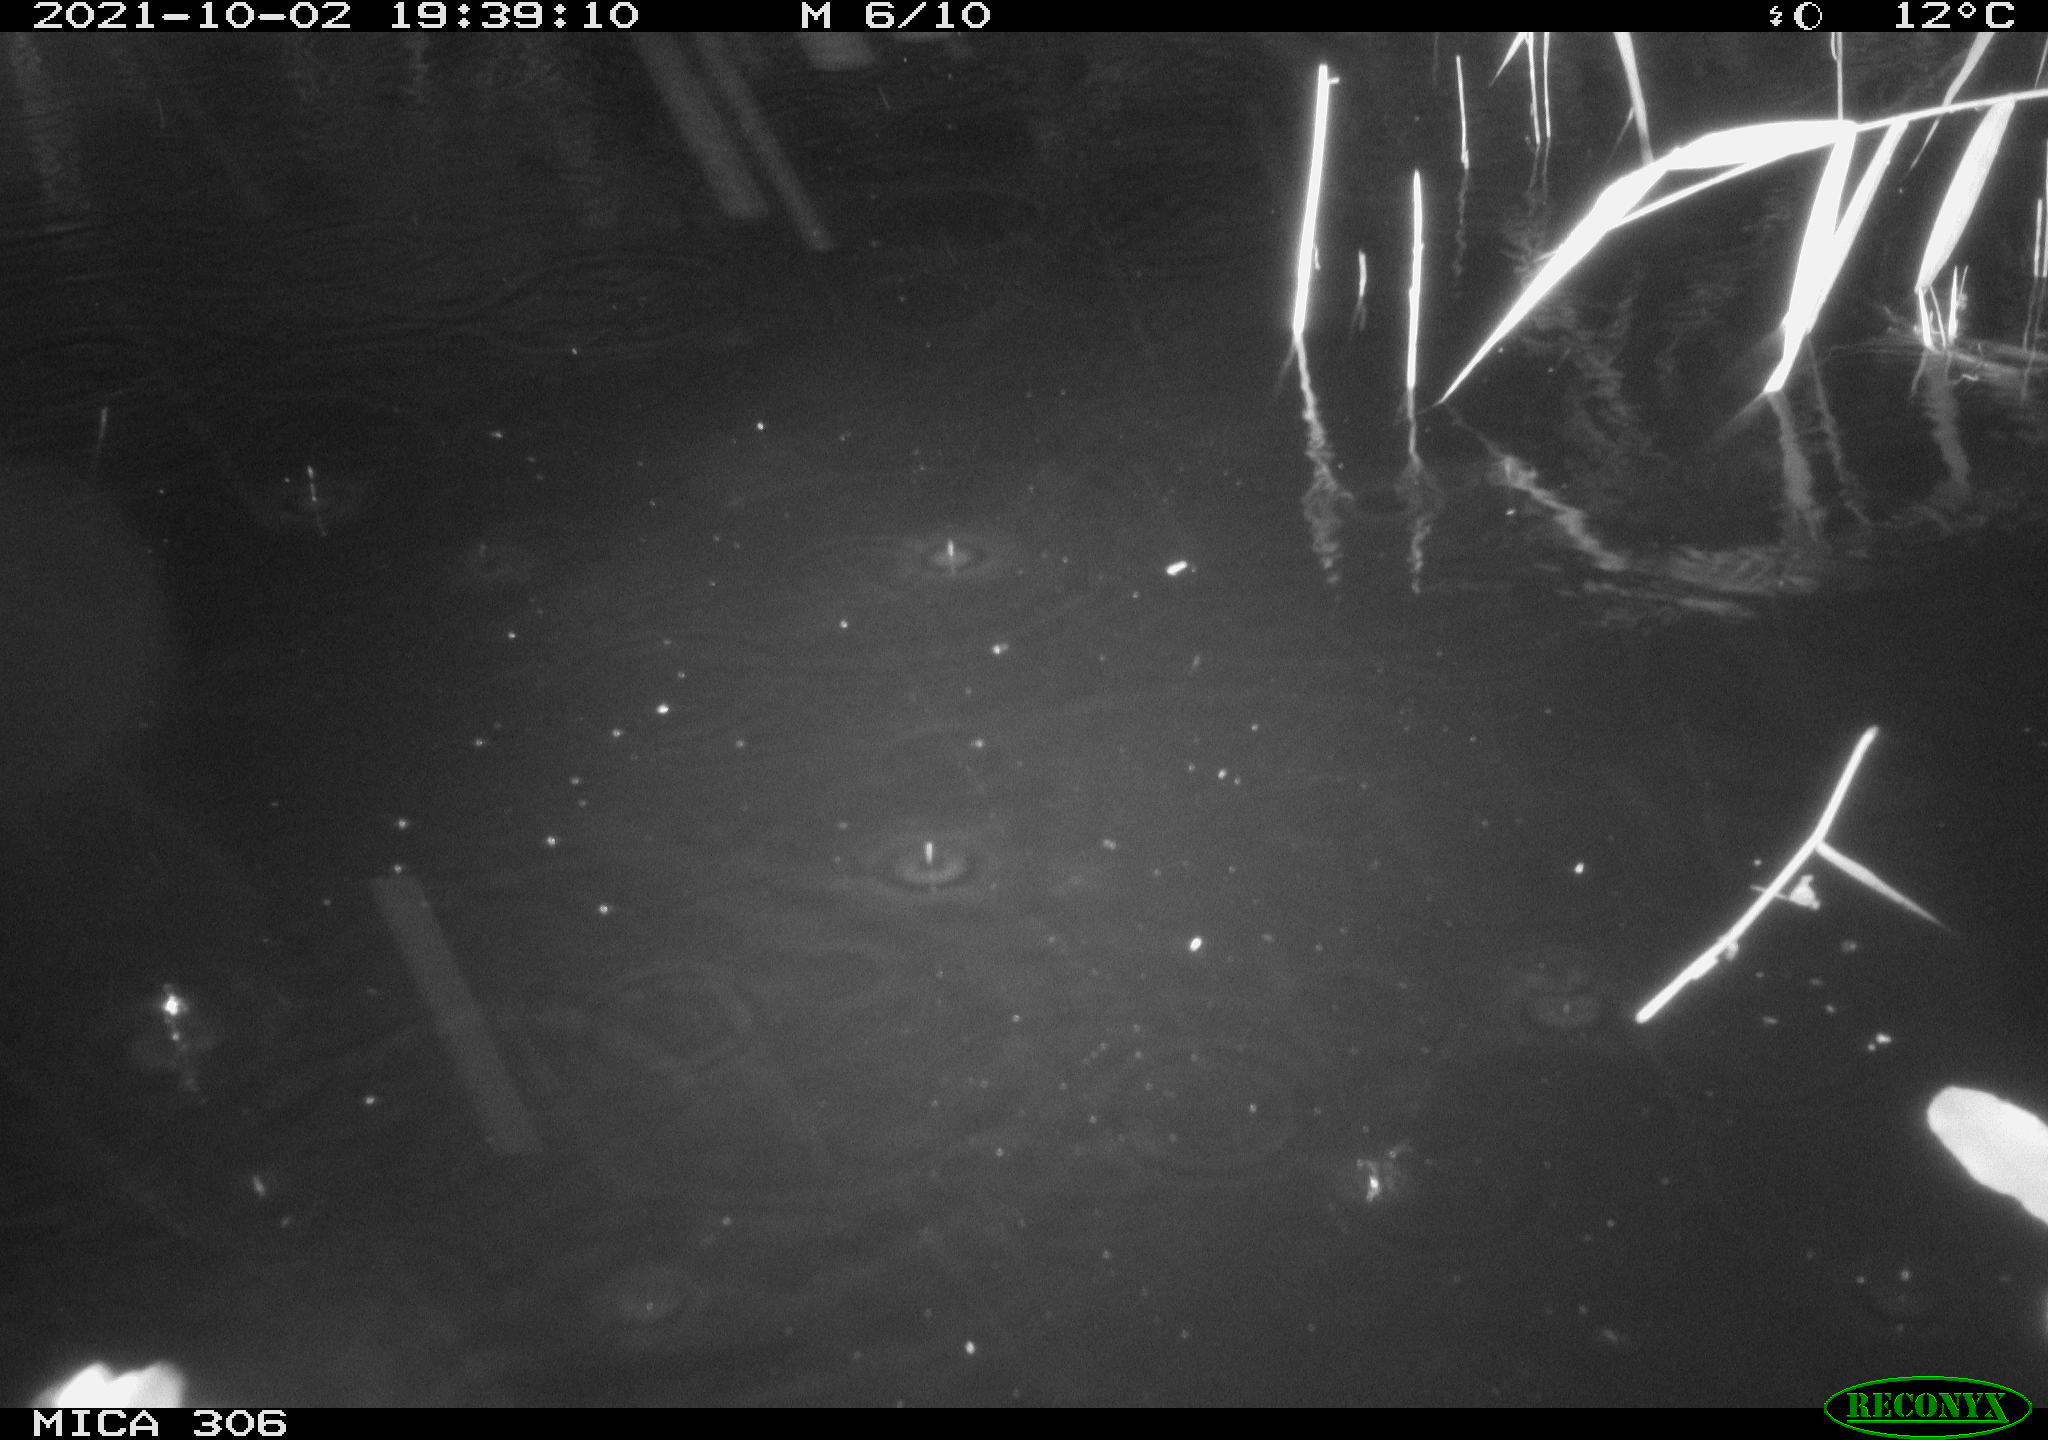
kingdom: Animalia
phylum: Chordata
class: Aves
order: Anseriformes
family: Anatidae
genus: Anas
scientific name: Anas
